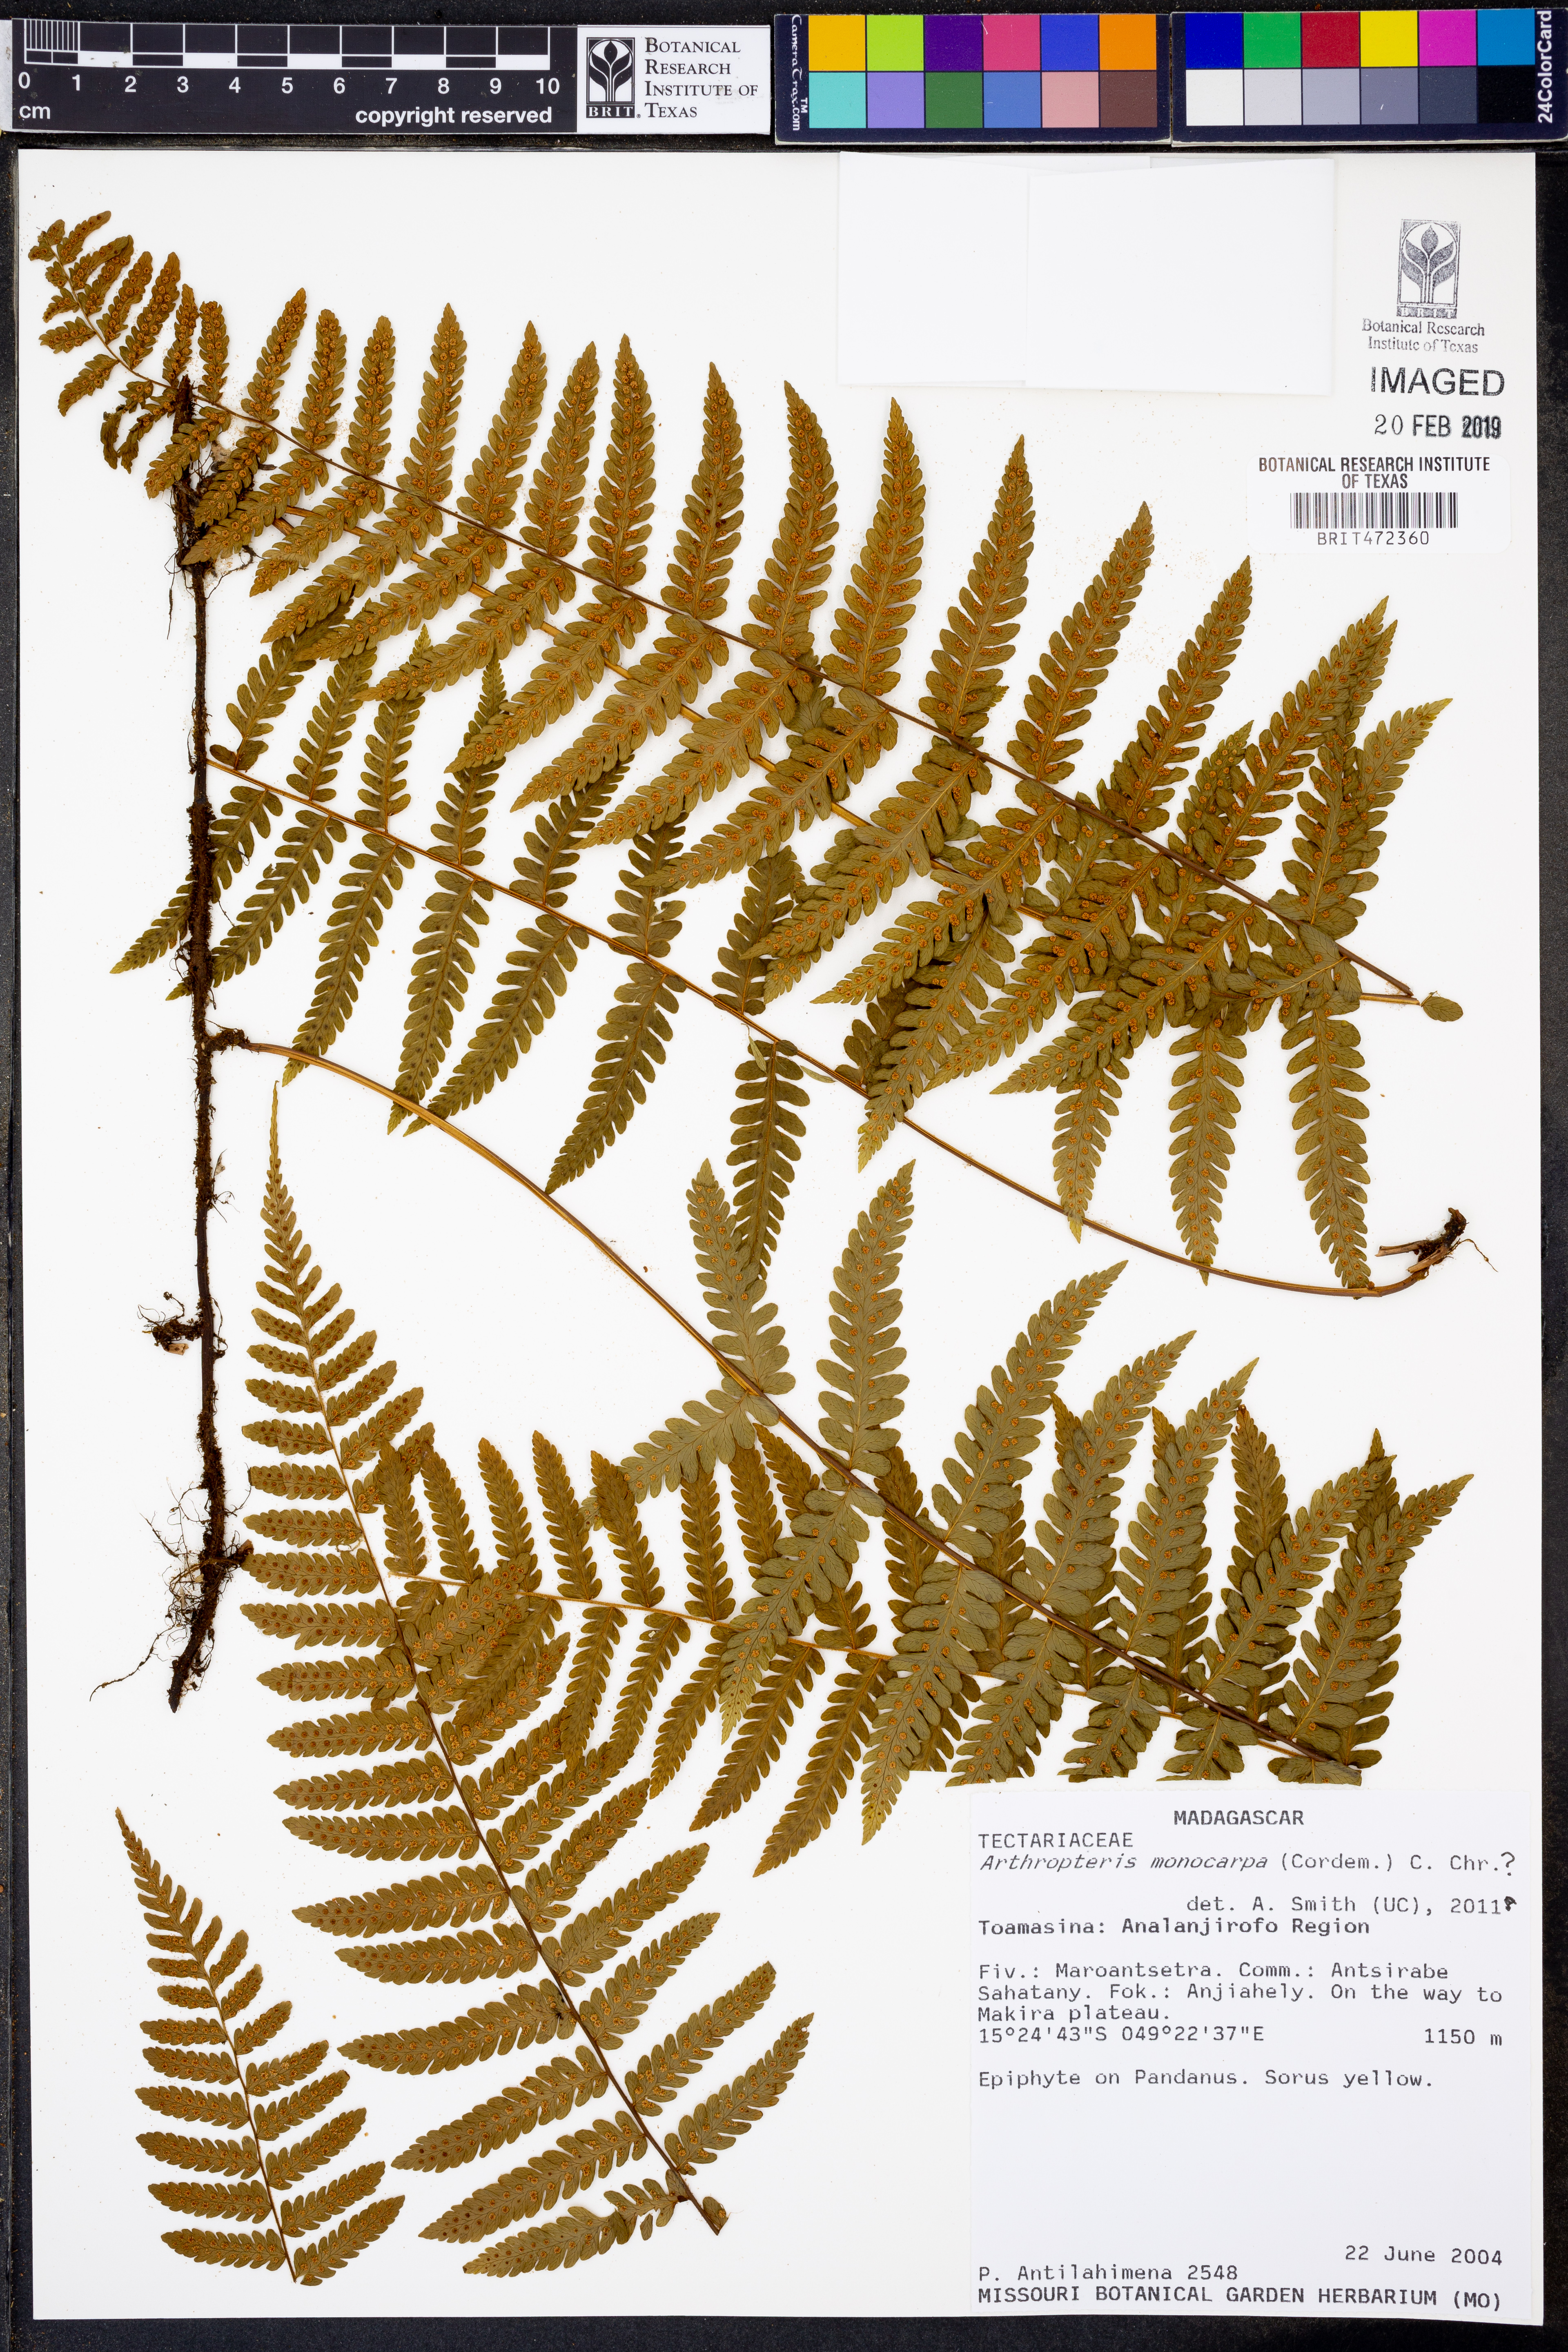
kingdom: Plantae
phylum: Tracheophyta
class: Polypodiopsida
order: Polypodiales
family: Tectariaceae
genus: Arthropteris
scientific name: Arthropteris monocarpa
